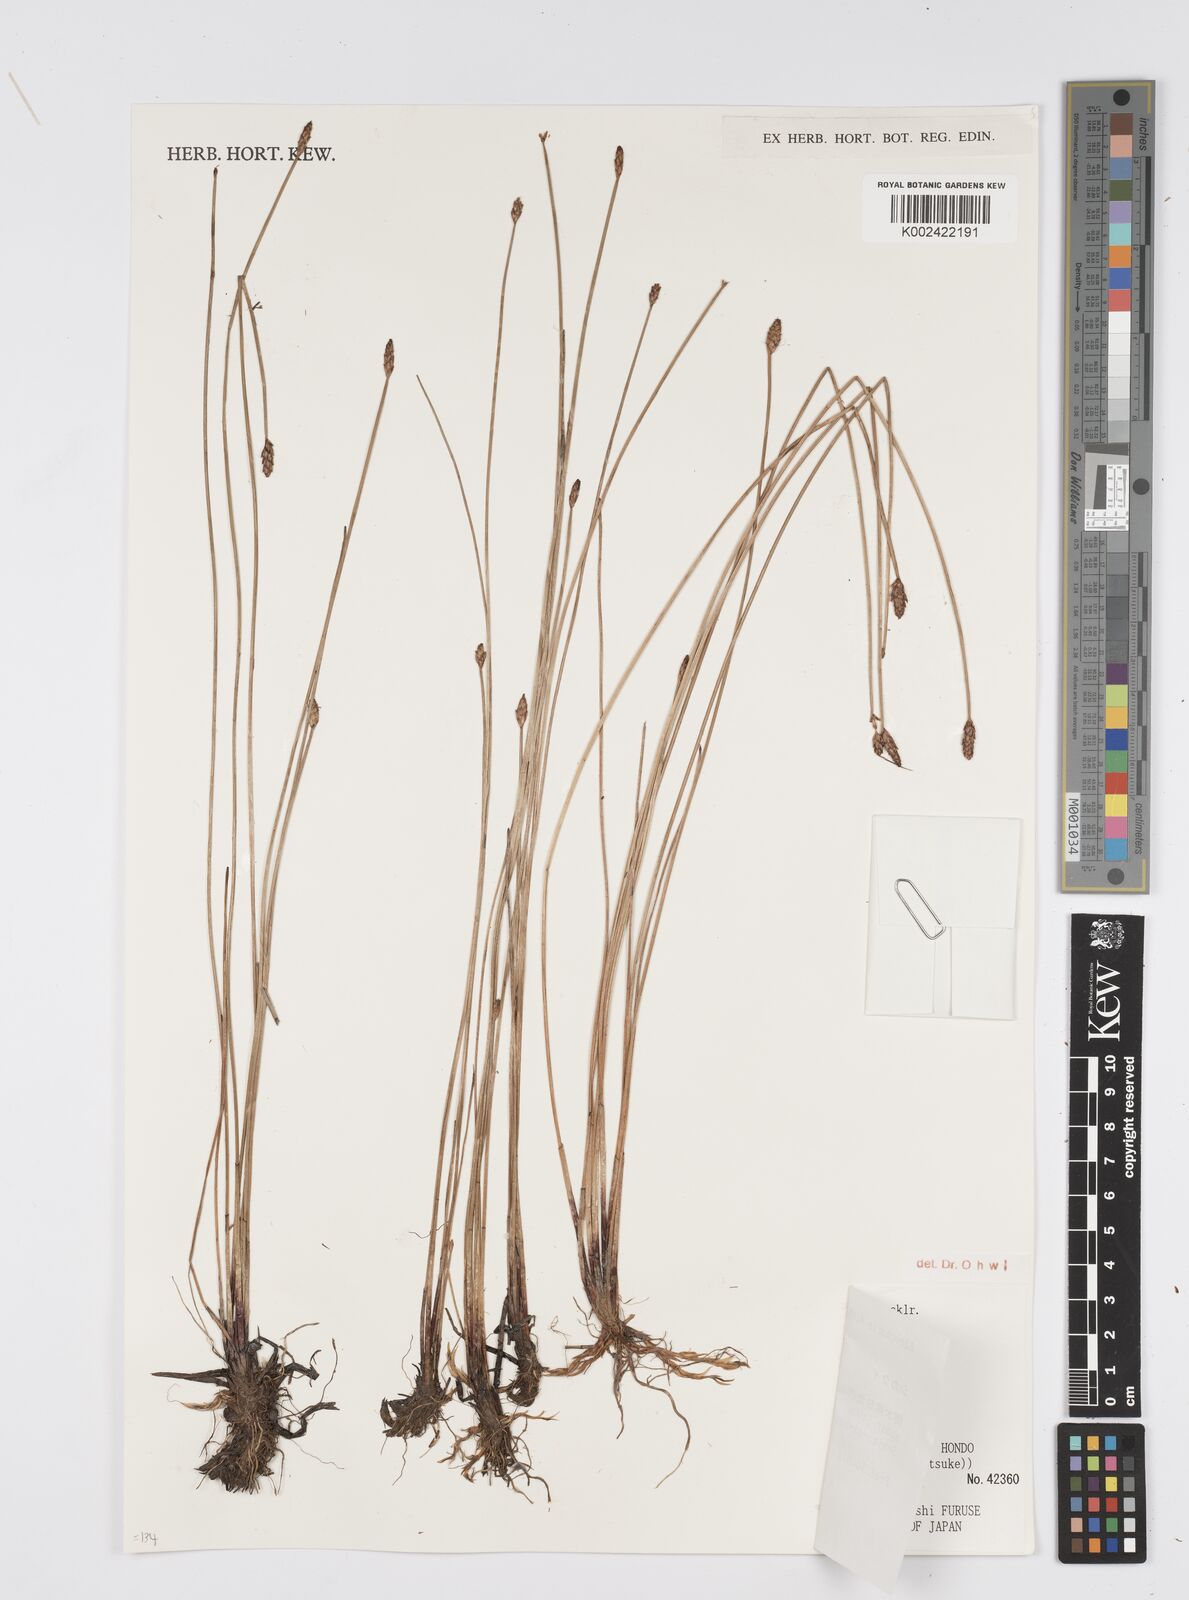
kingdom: Plantae
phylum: Tracheophyta
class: Liliopsida
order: Poales
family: Cyperaceae
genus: Eleocharis
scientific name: Eleocharis tetraquetra
